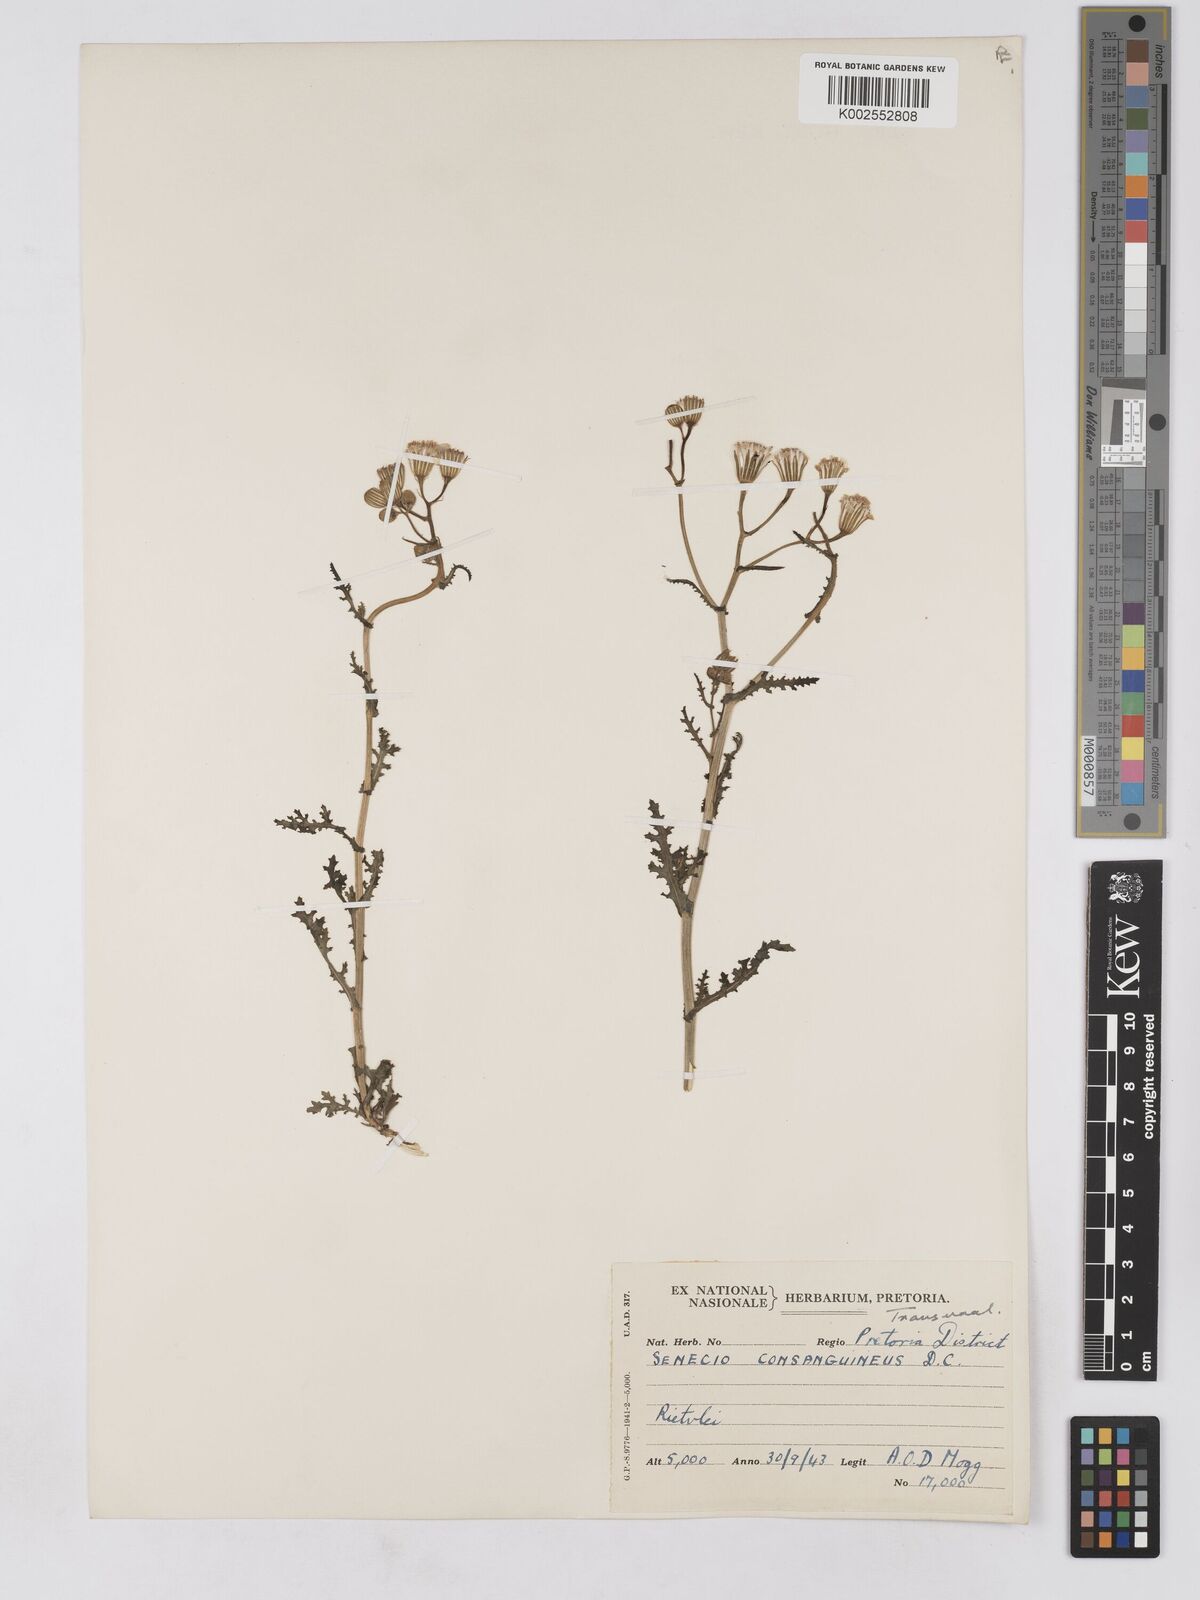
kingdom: Plantae
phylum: Tracheophyta
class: Magnoliopsida
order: Asterales
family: Asteraceae
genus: Senecio
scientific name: Senecio consanguineus
